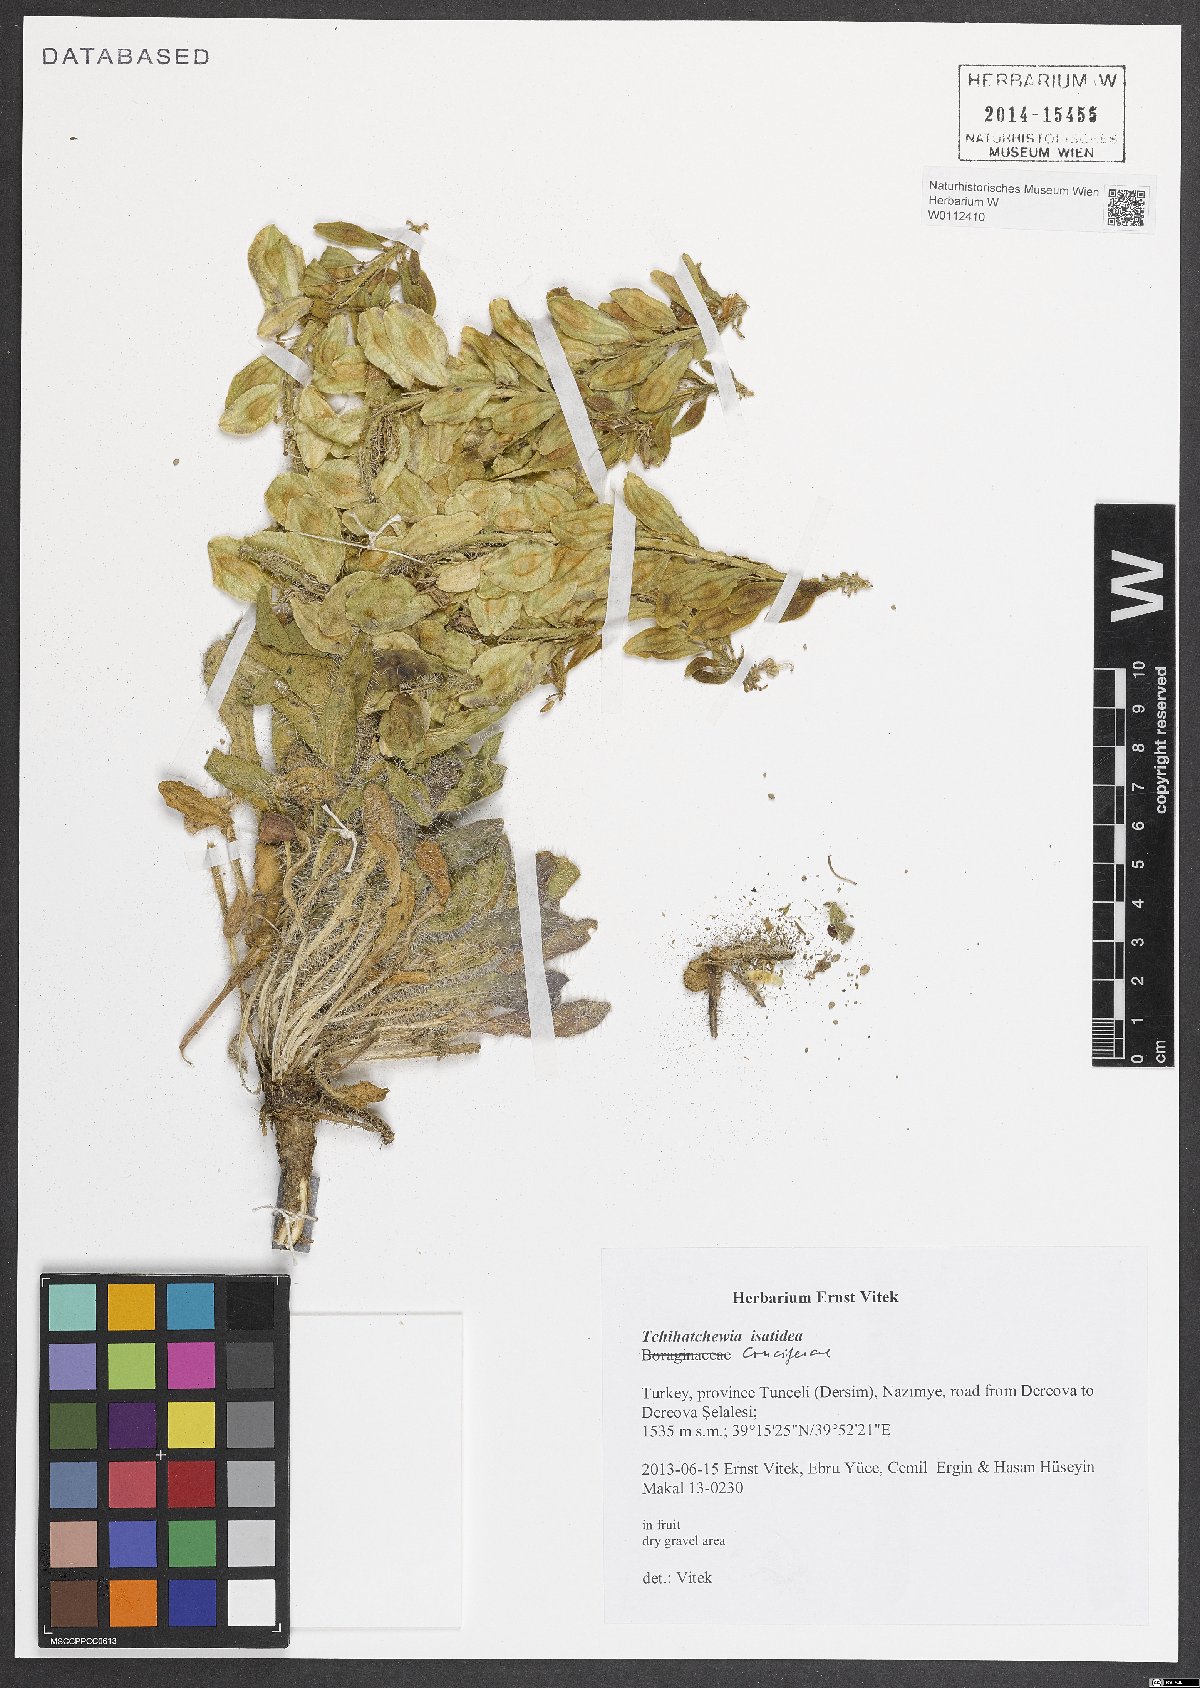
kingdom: Plantae
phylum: Tracheophyta
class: Magnoliopsida
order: Brassicales
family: Brassicaceae
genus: Hesperis
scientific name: Hesperis isatidea
